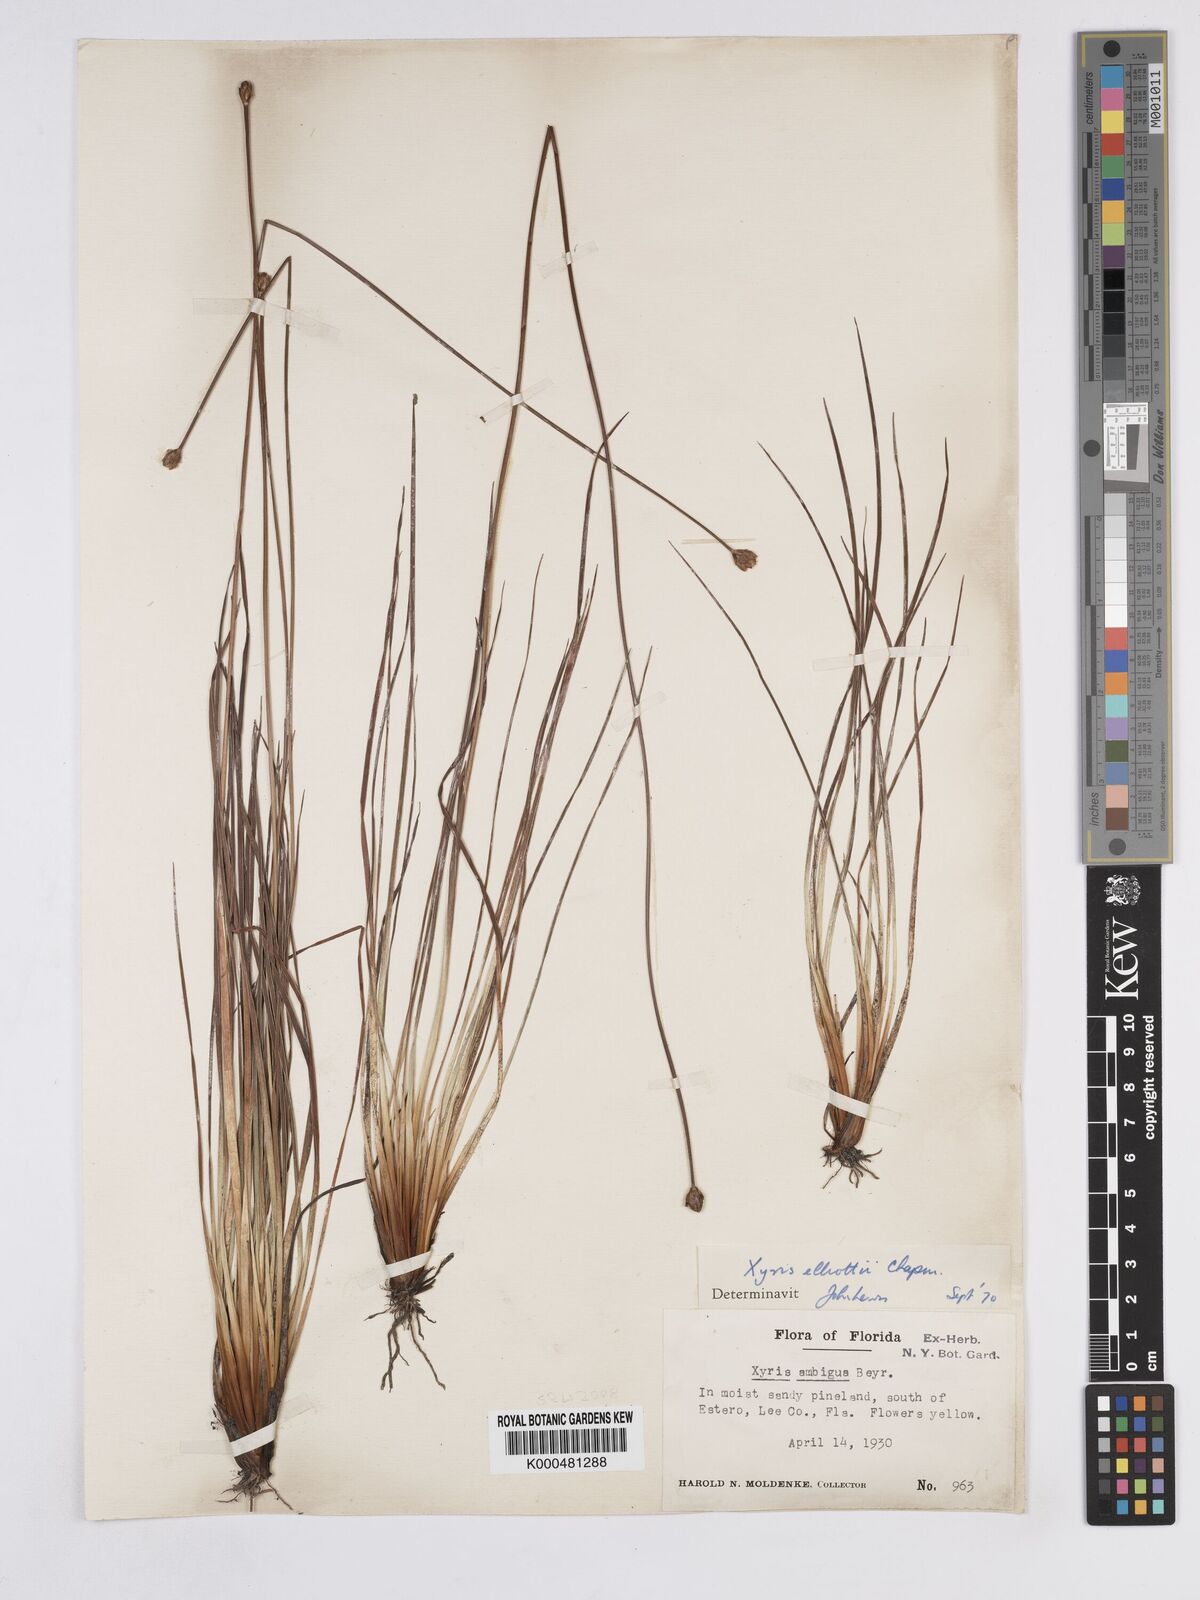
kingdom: Plantae
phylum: Tracheophyta
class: Liliopsida
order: Poales
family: Xyridaceae
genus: Xyris
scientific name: Xyris elliottii
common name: Elliot's yelloweyed grass
